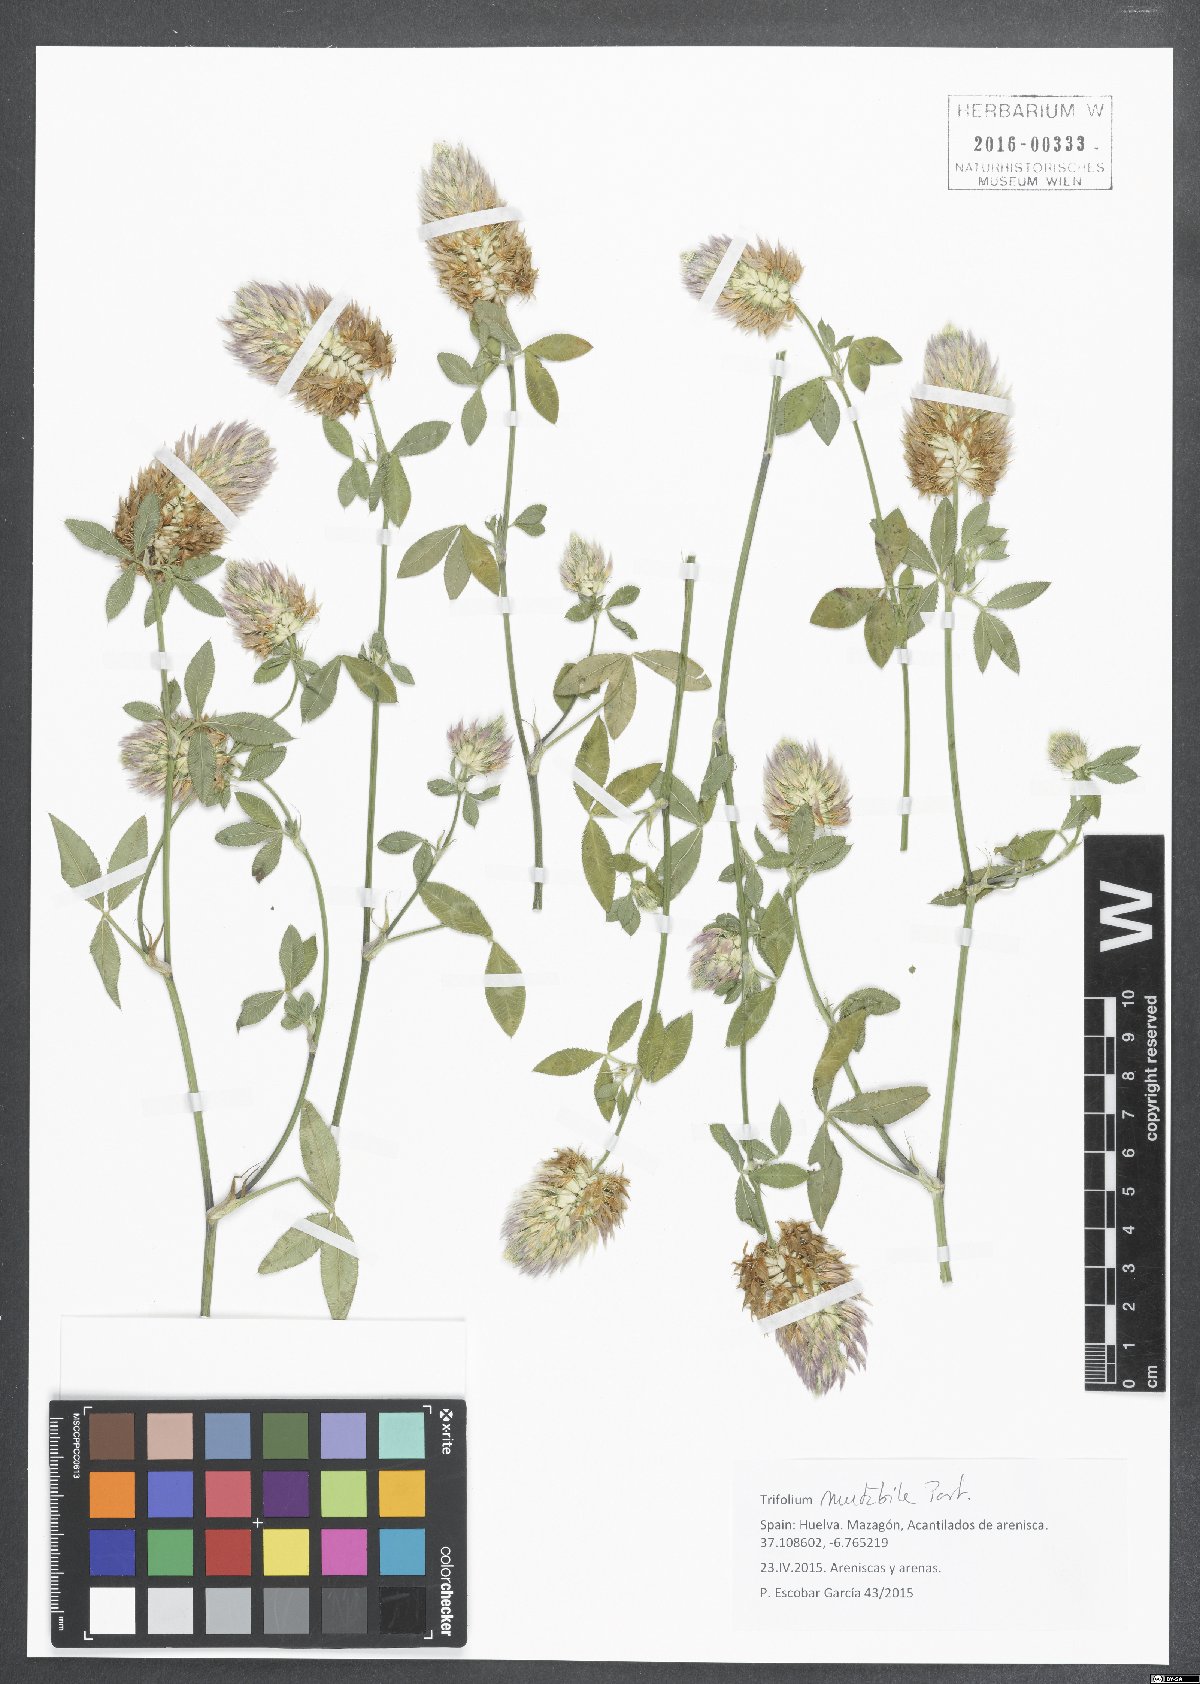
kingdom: Plantae
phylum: Tracheophyta
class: Magnoliopsida
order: Fabales
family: Fabaceae
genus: Trifolium
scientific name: Trifolium mutabile
